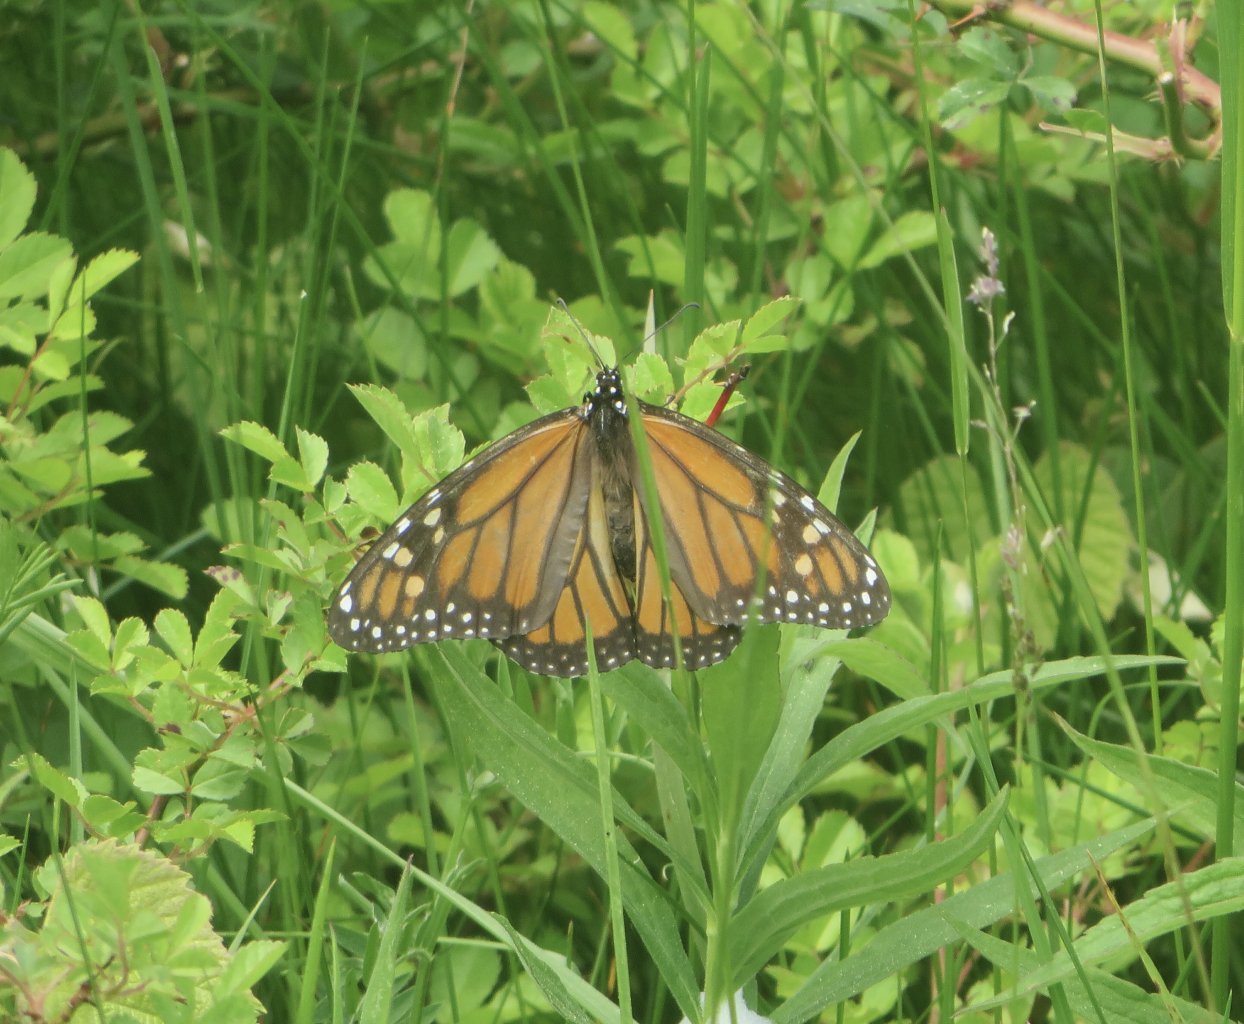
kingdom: Animalia
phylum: Arthropoda
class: Insecta
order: Lepidoptera
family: Nymphalidae
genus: Danaus
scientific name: Danaus plexippus
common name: Monarch
